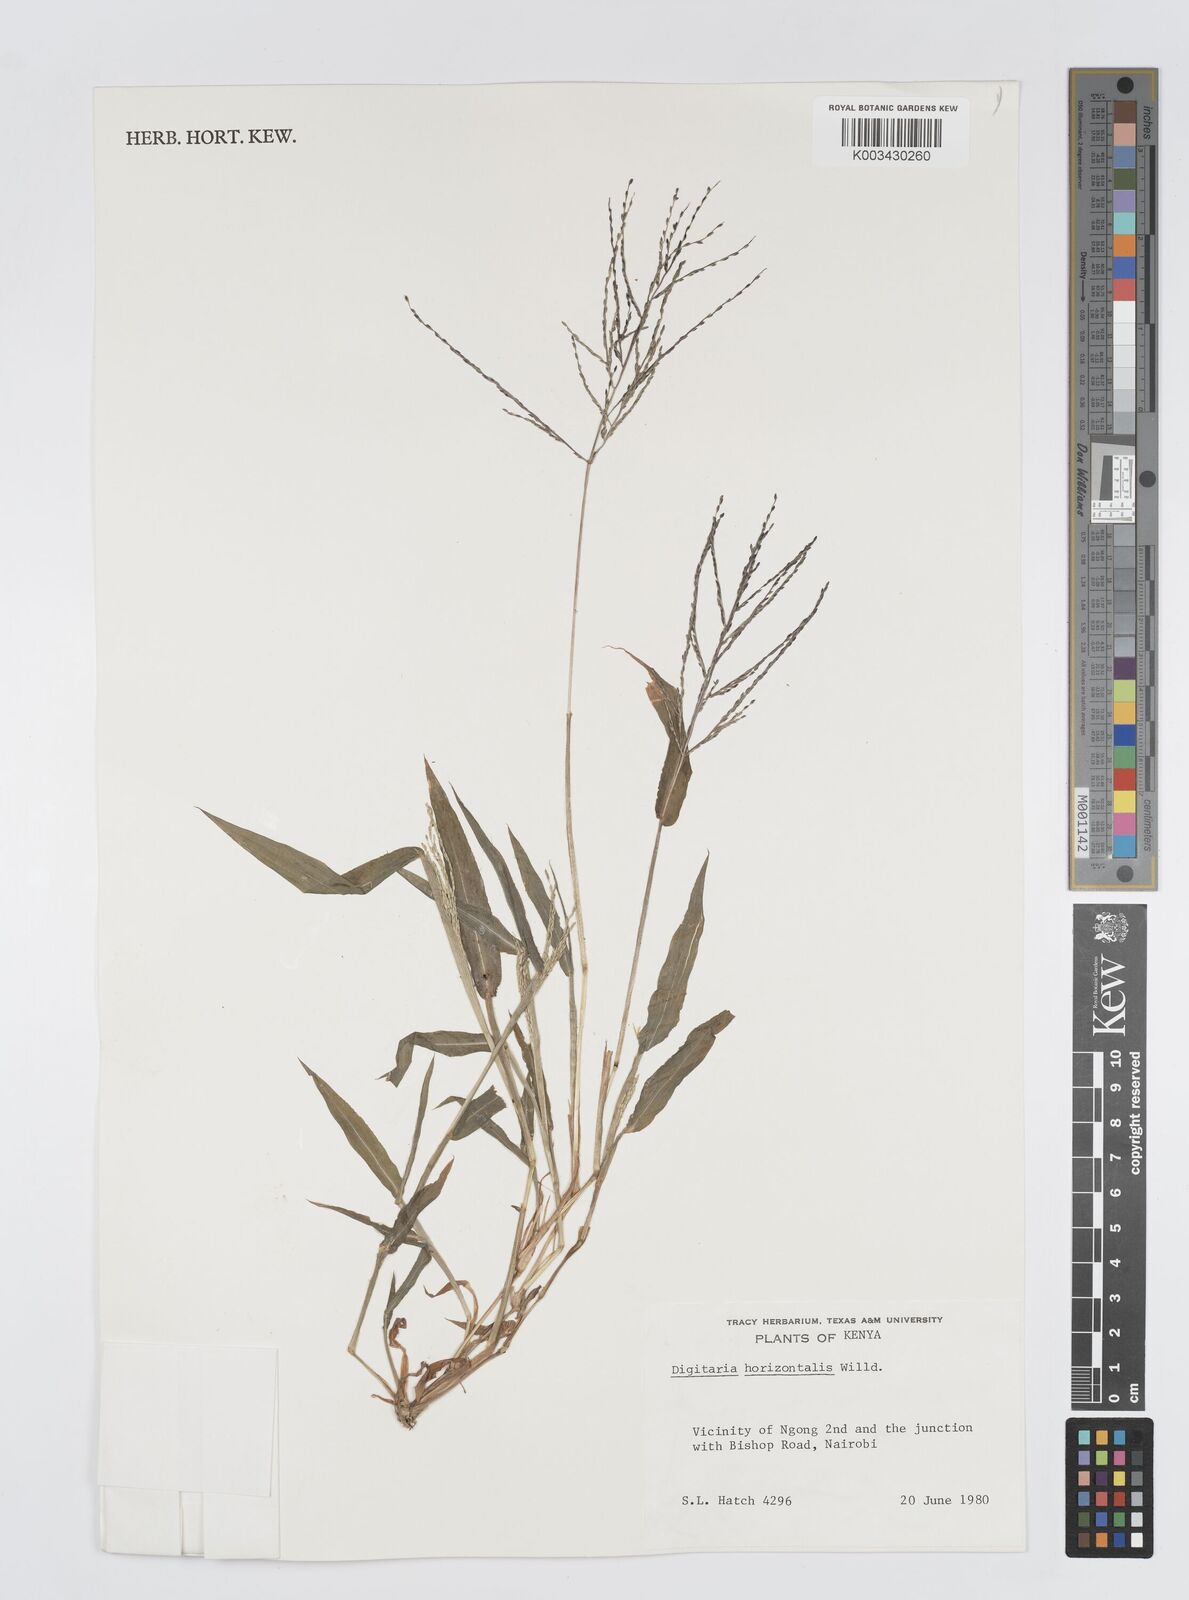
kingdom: Plantae
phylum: Tracheophyta
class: Liliopsida
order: Poales
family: Poaceae
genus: Digitaria
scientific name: Digitaria velutina
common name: Long-plume finger grass
